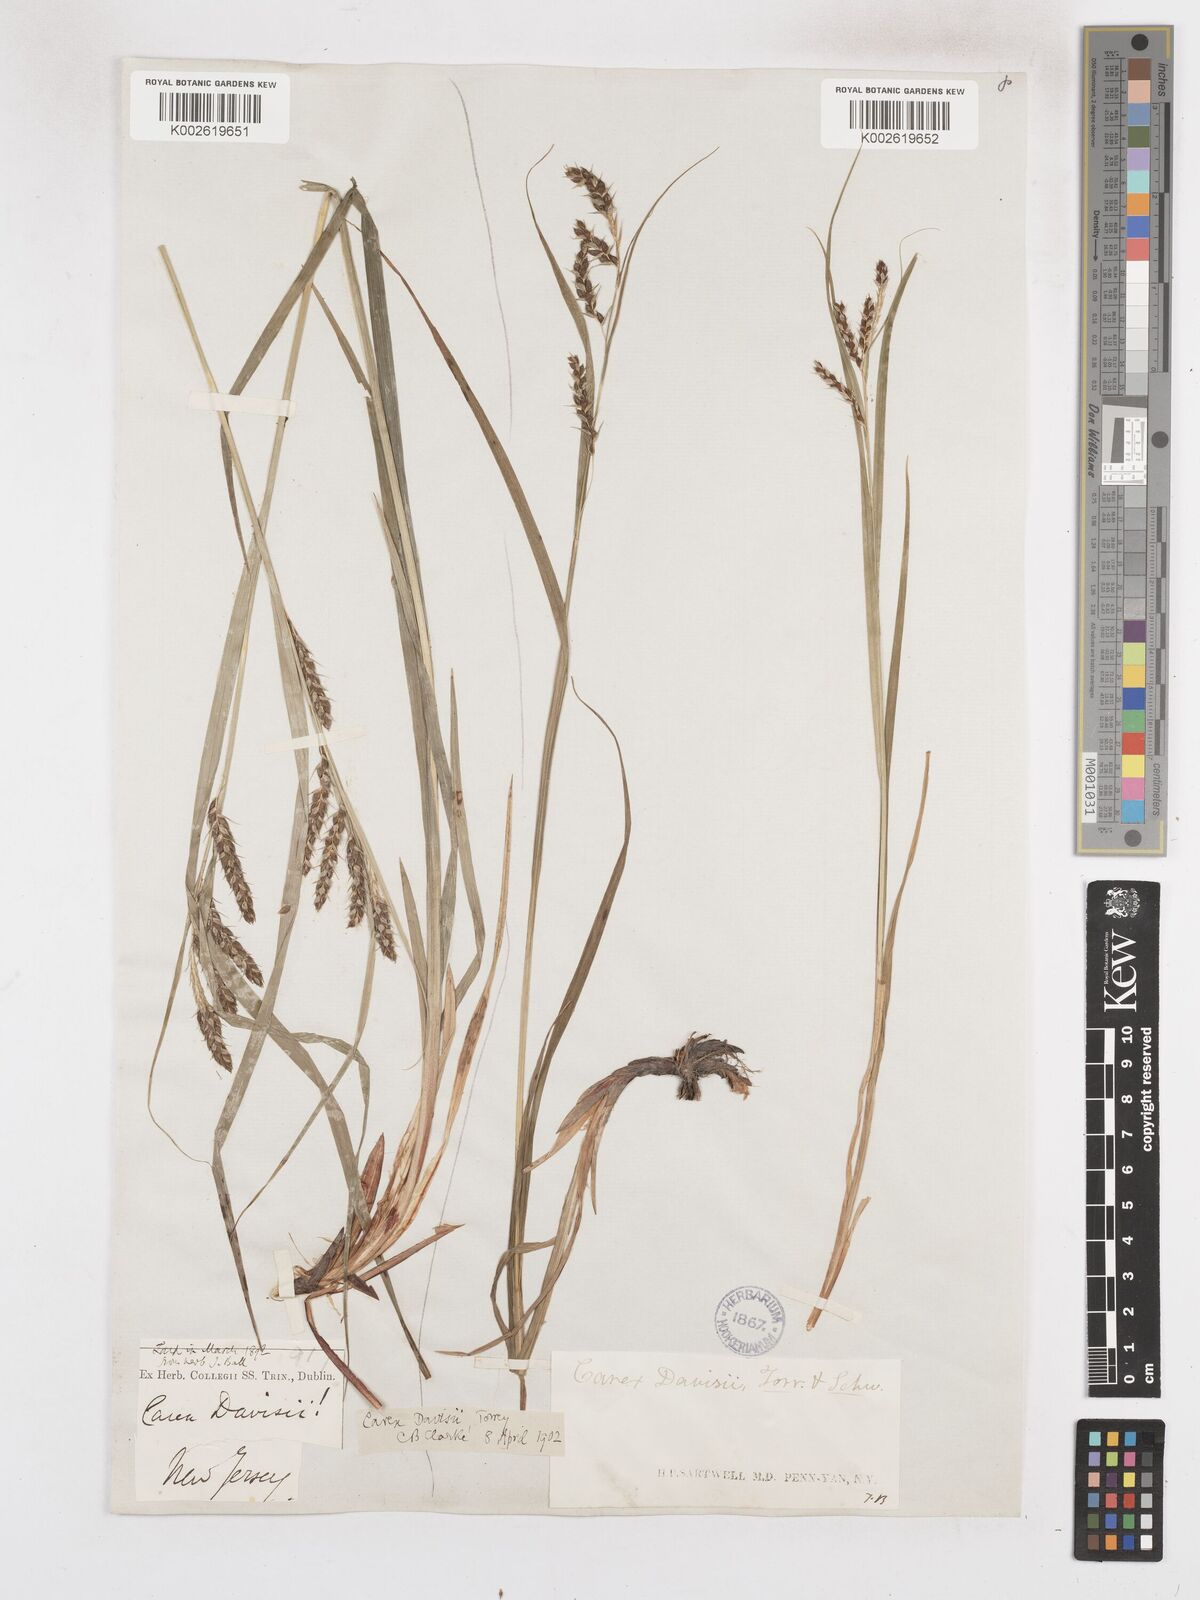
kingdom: Plantae
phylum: Tracheophyta
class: Liliopsida
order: Poales
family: Cyperaceae
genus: Carex
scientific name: Carex davisii
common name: Davis' sedge
